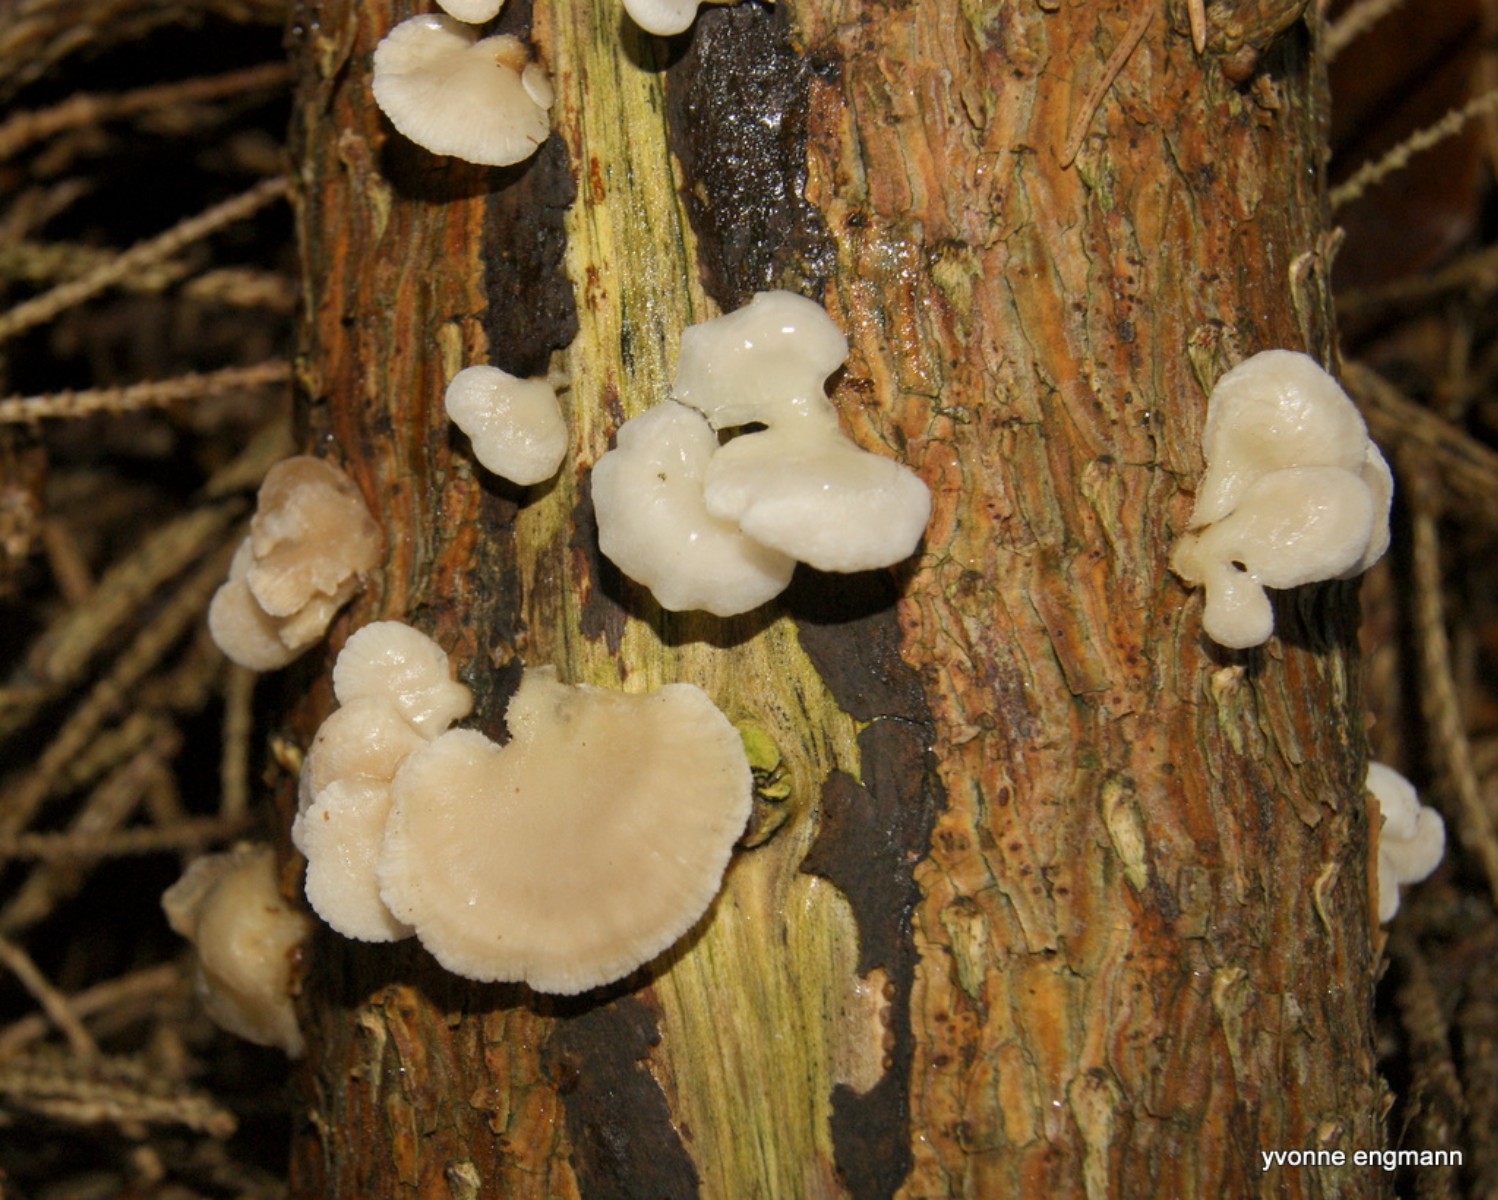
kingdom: Fungi
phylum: Basidiomycota
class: Agaricomycetes
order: Agaricales
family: Mycenaceae
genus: Panellus
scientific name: Panellus mitis
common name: mild epaulethat
